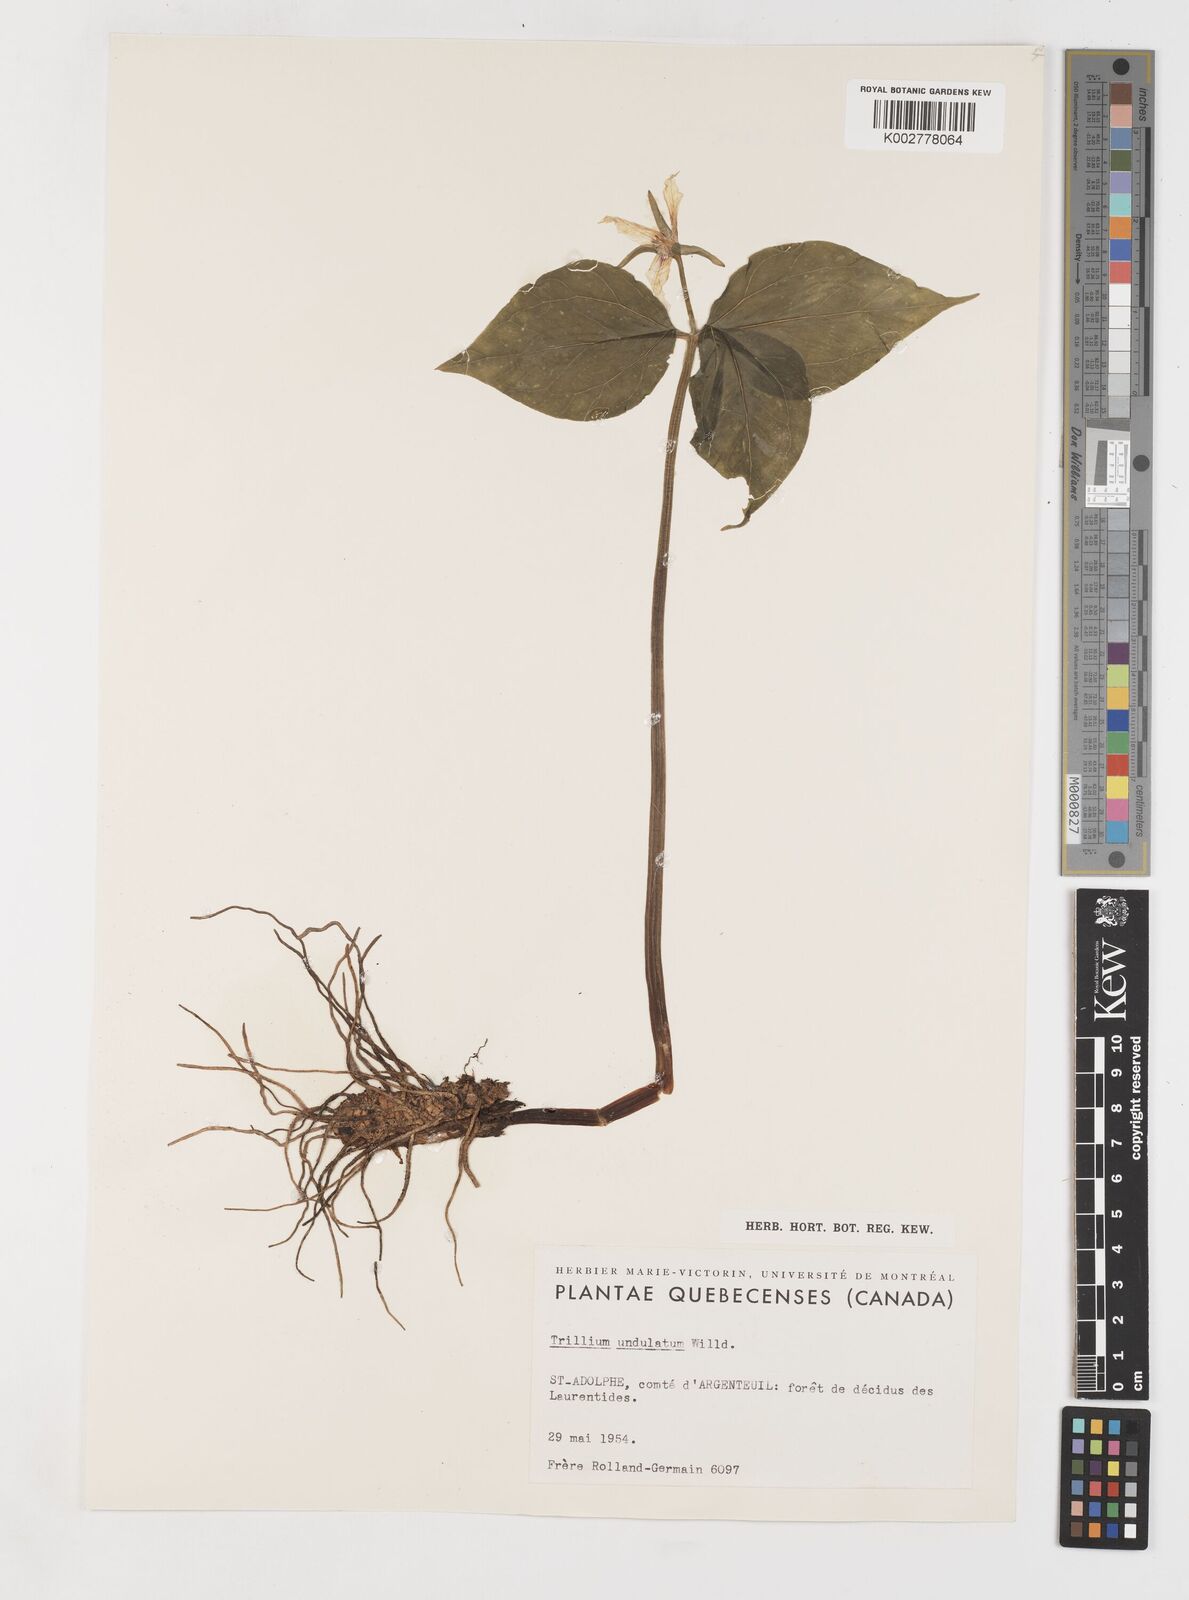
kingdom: Plantae
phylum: Tracheophyta
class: Liliopsida
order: Liliales
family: Melanthiaceae
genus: Trillium
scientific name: Trillium undulatum
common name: Paint trillium
